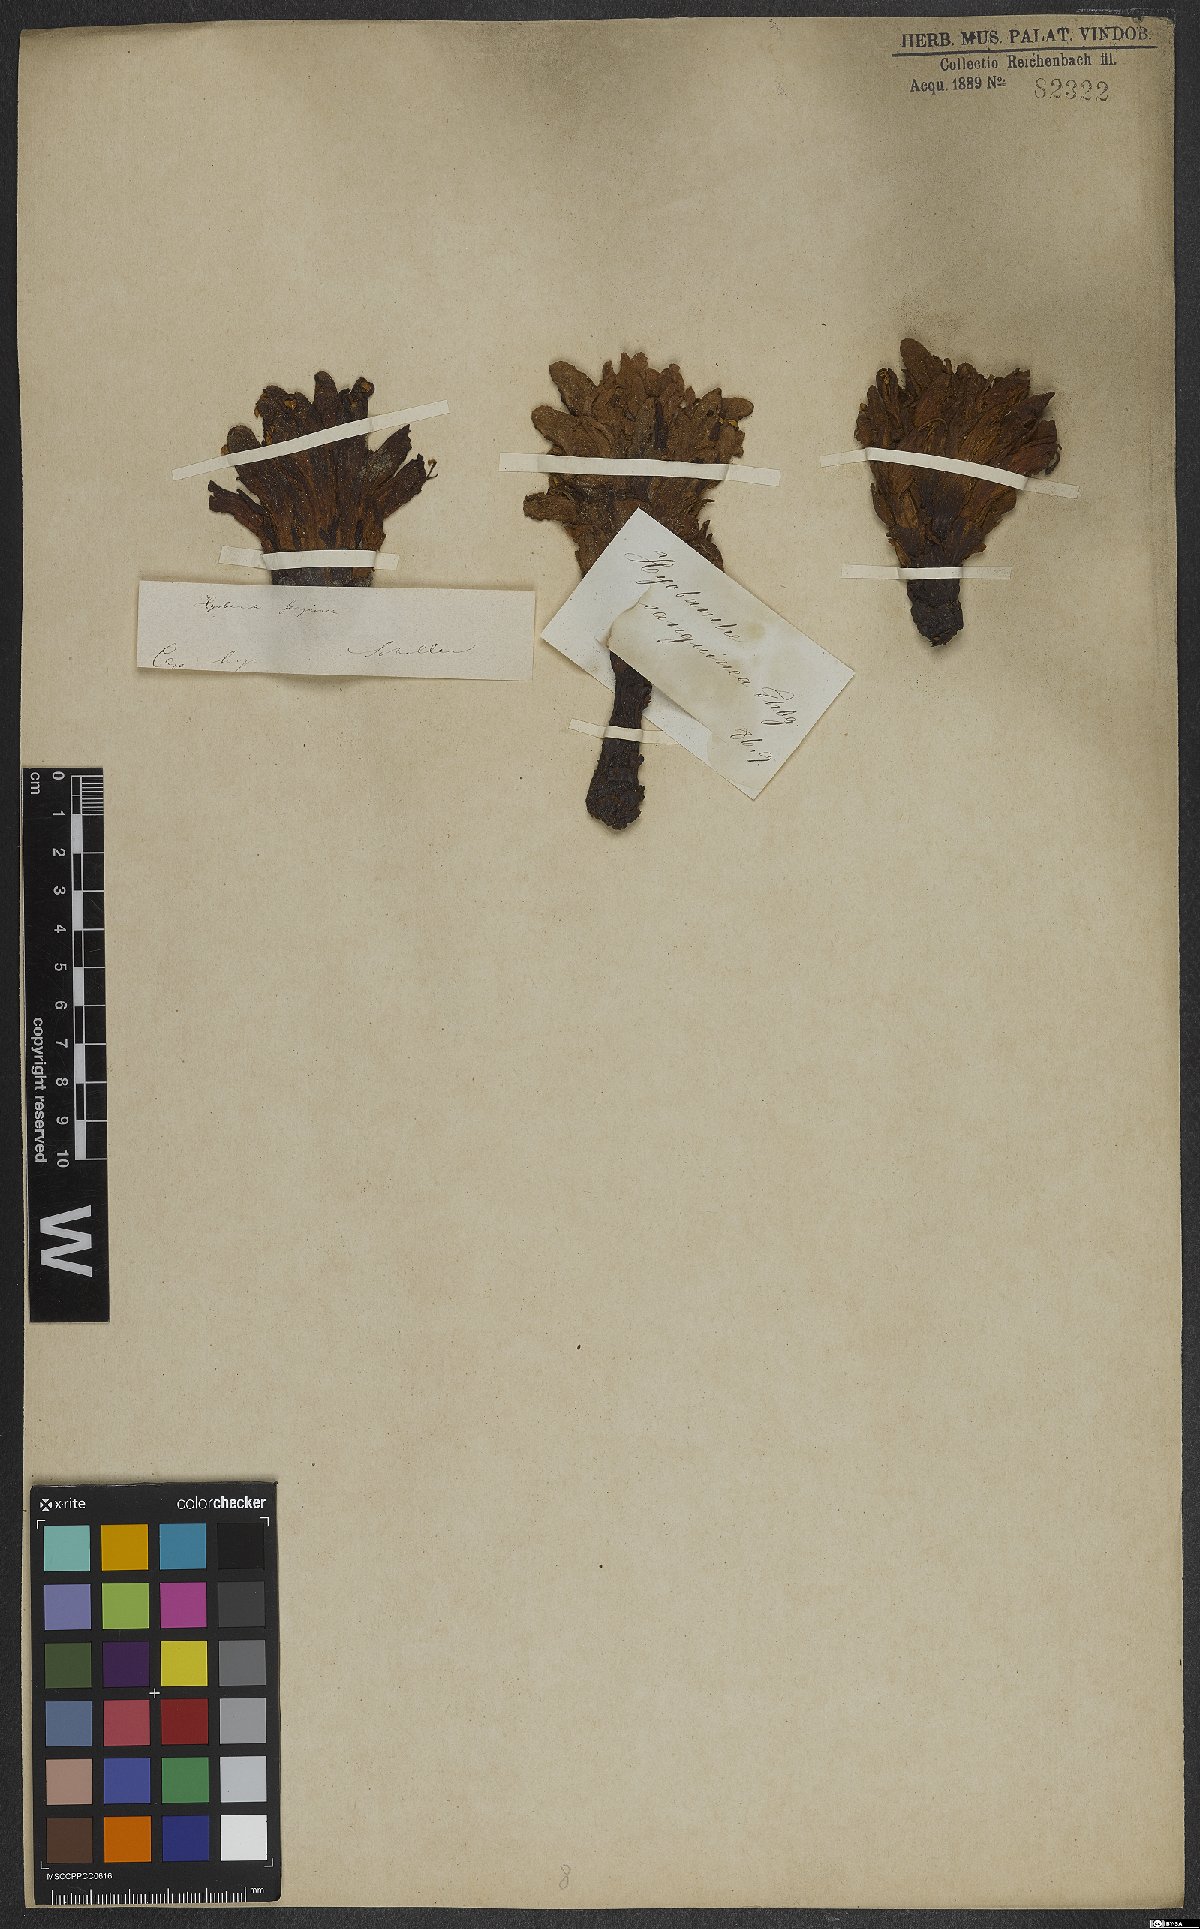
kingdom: Plantae
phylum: Tracheophyta
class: Magnoliopsida
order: Lamiales
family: Orobanchaceae
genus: Hyobanche
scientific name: Hyobanche sanguinea
